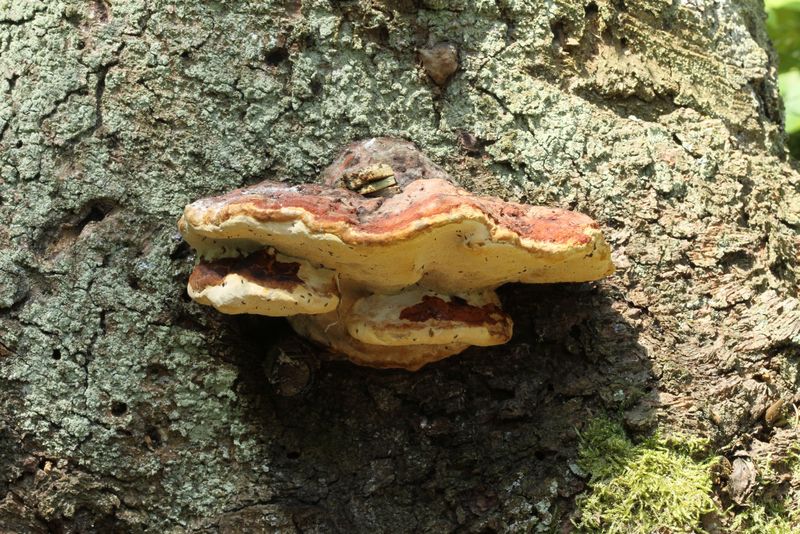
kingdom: Fungi
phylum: Basidiomycota
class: Agaricomycetes
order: Polyporales
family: Fomitopsidaceae
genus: Fomitopsis
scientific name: Fomitopsis pinicola
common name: randbæltet hovporesvamp
